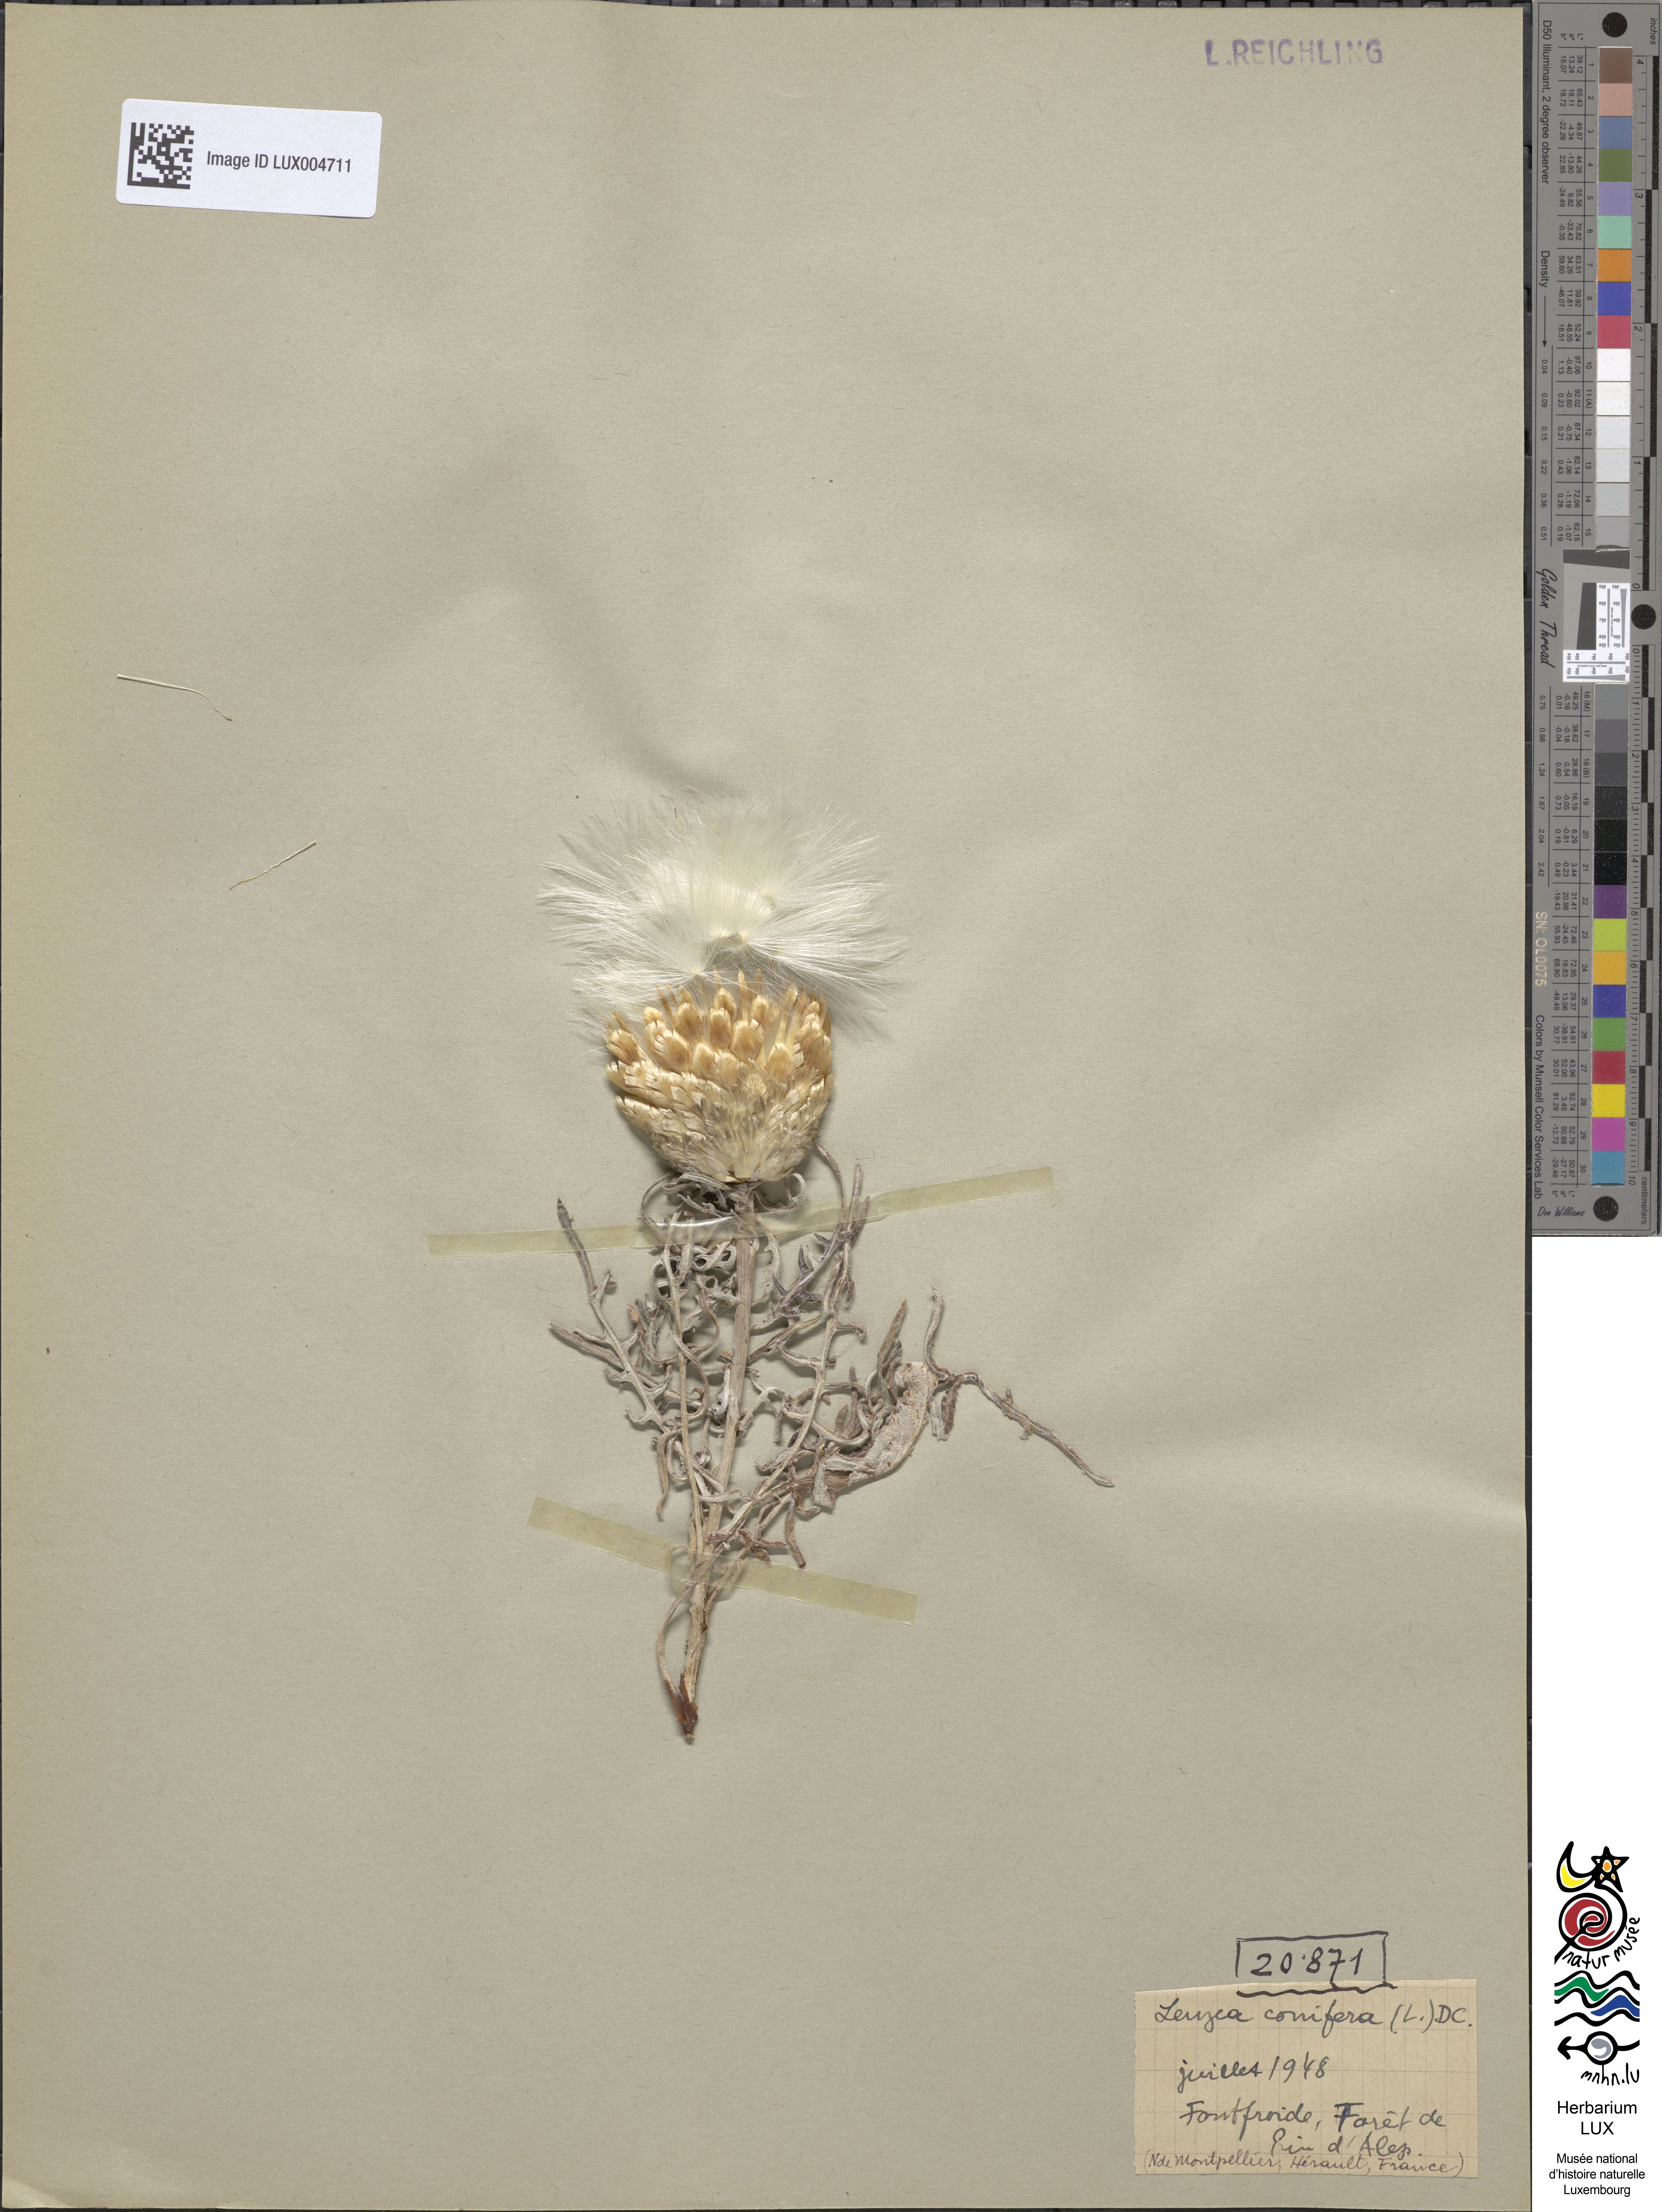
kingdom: Plantae
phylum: Tracheophyta
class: Magnoliopsida
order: Asterales
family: Asteraceae
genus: Leuzea
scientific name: Leuzea conifera
